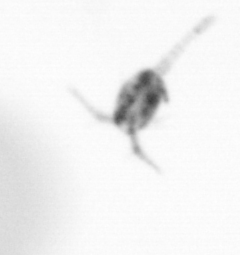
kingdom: Animalia
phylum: Arthropoda
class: Copepoda
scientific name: Copepoda
